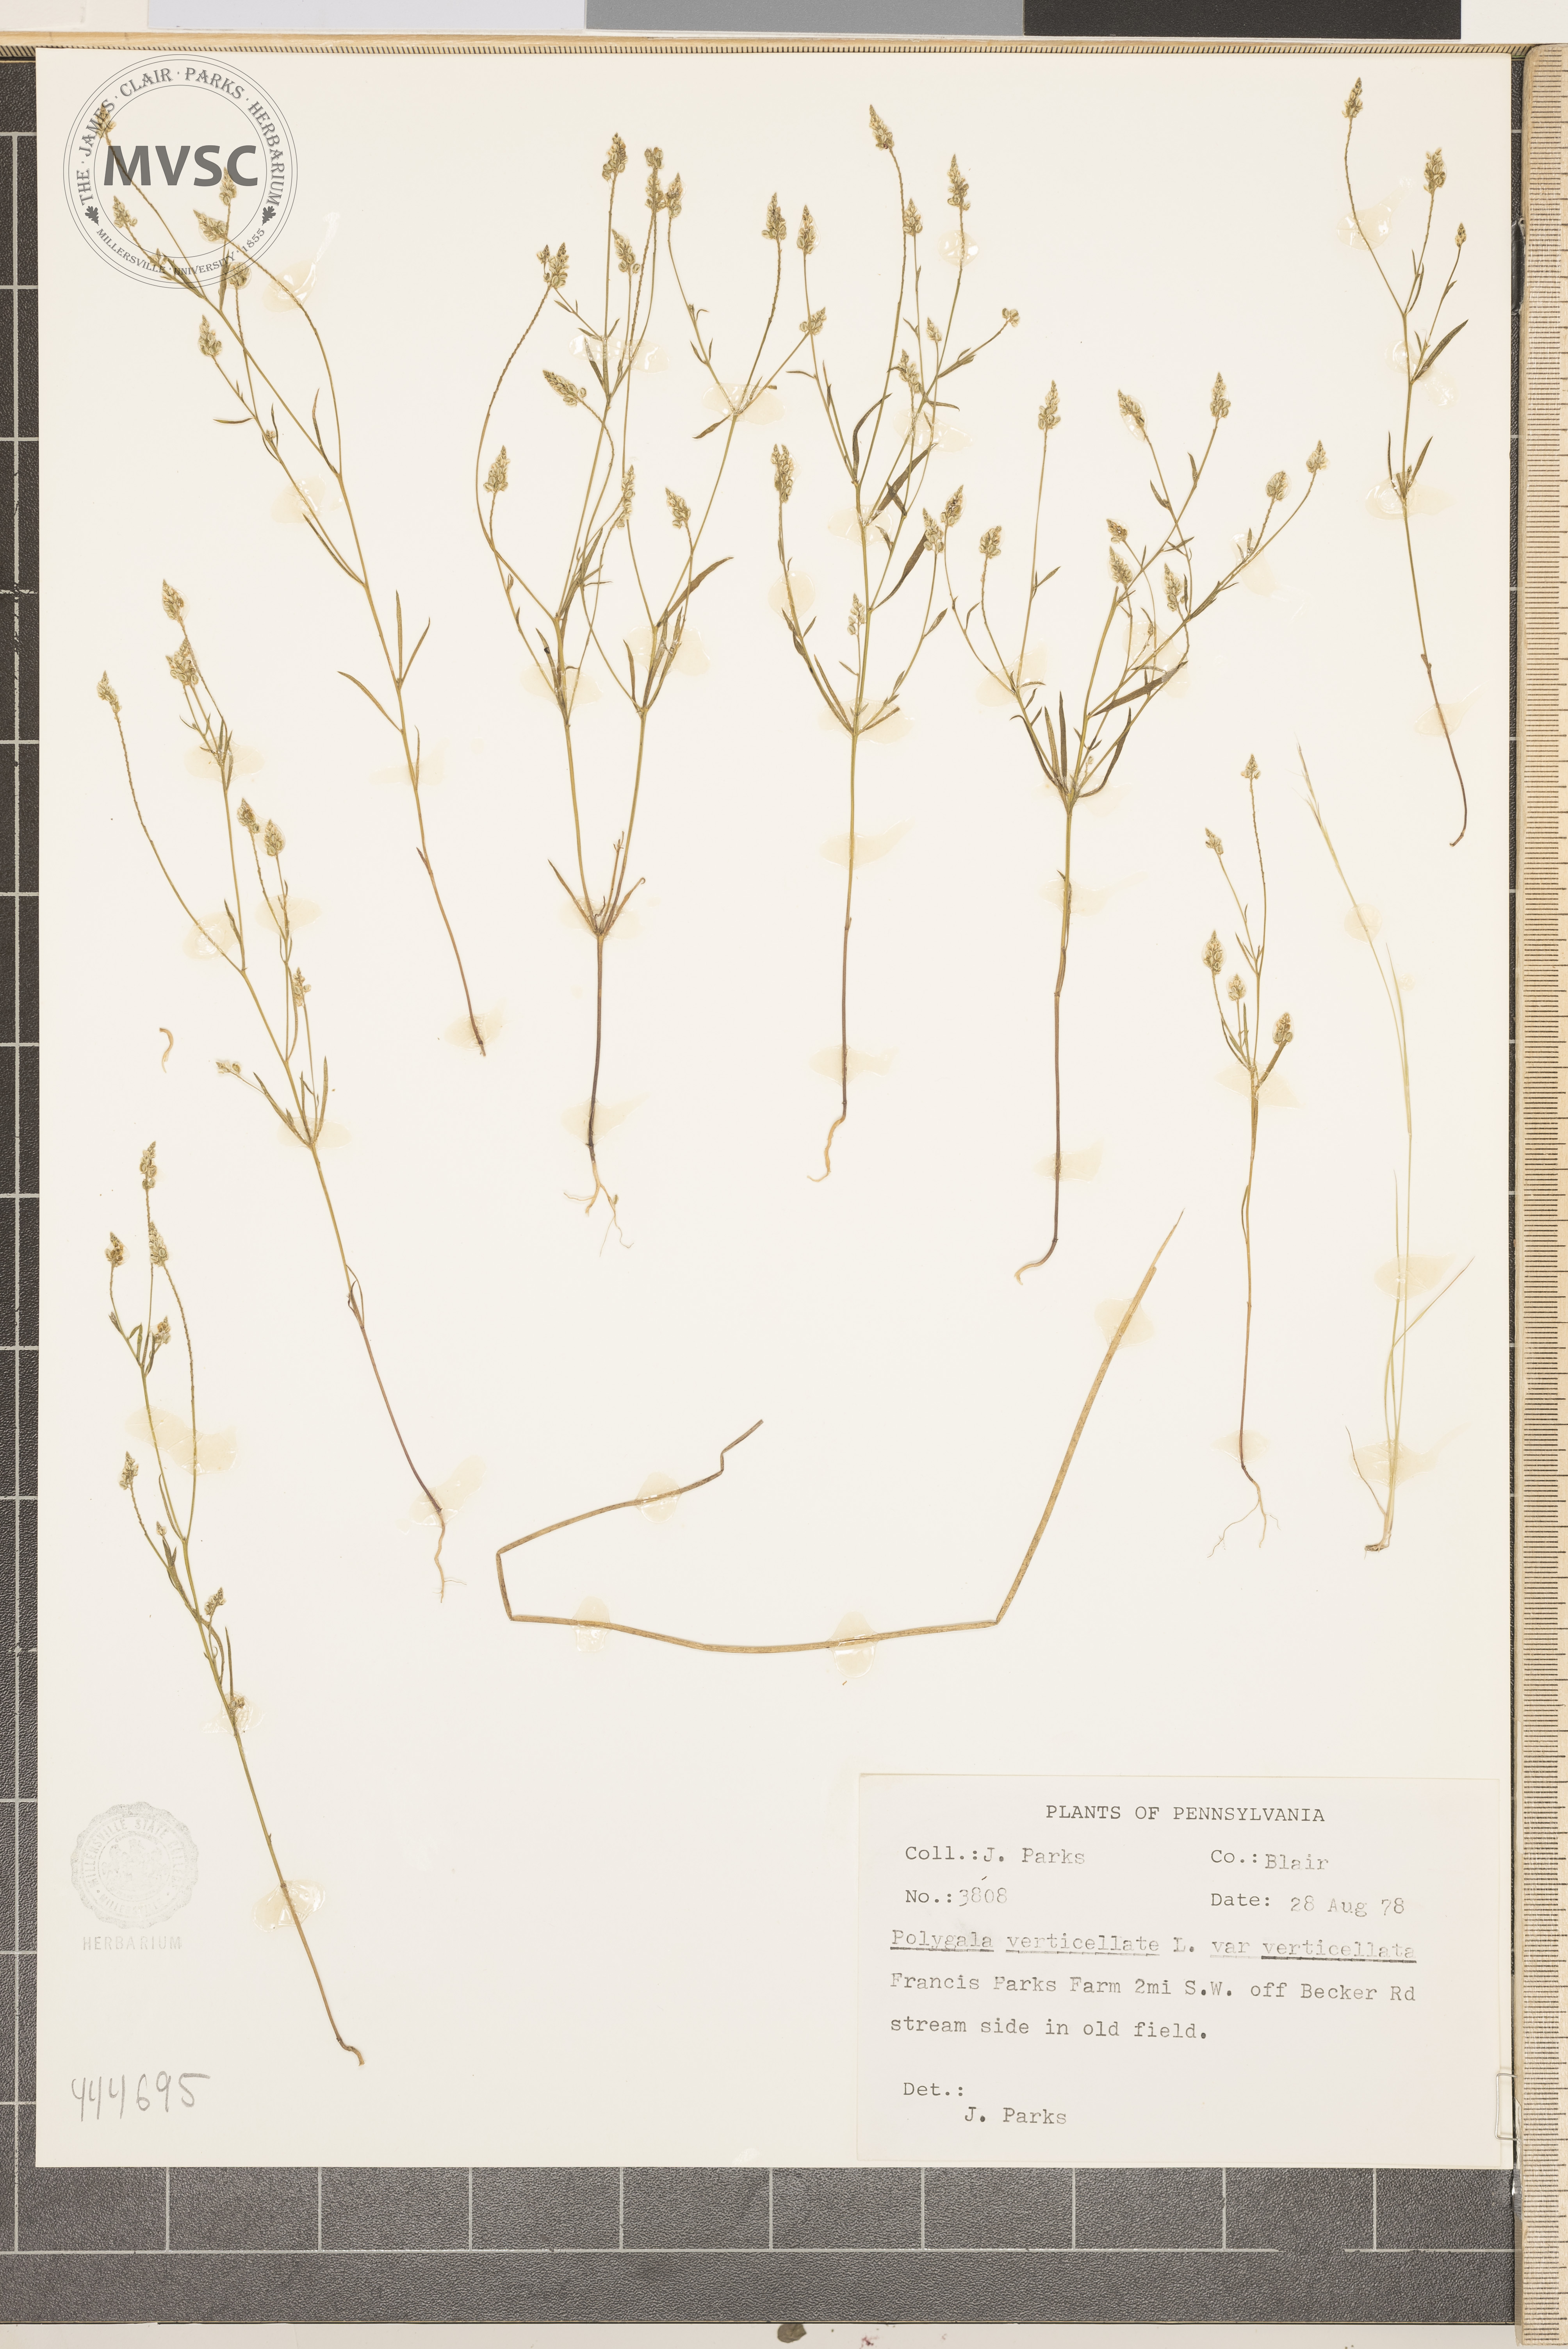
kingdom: Plantae
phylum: Tracheophyta
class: Magnoliopsida
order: Fabales
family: Polygalaceae
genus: Polygala
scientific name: Polygala verticillata
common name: Whorl milkwort
